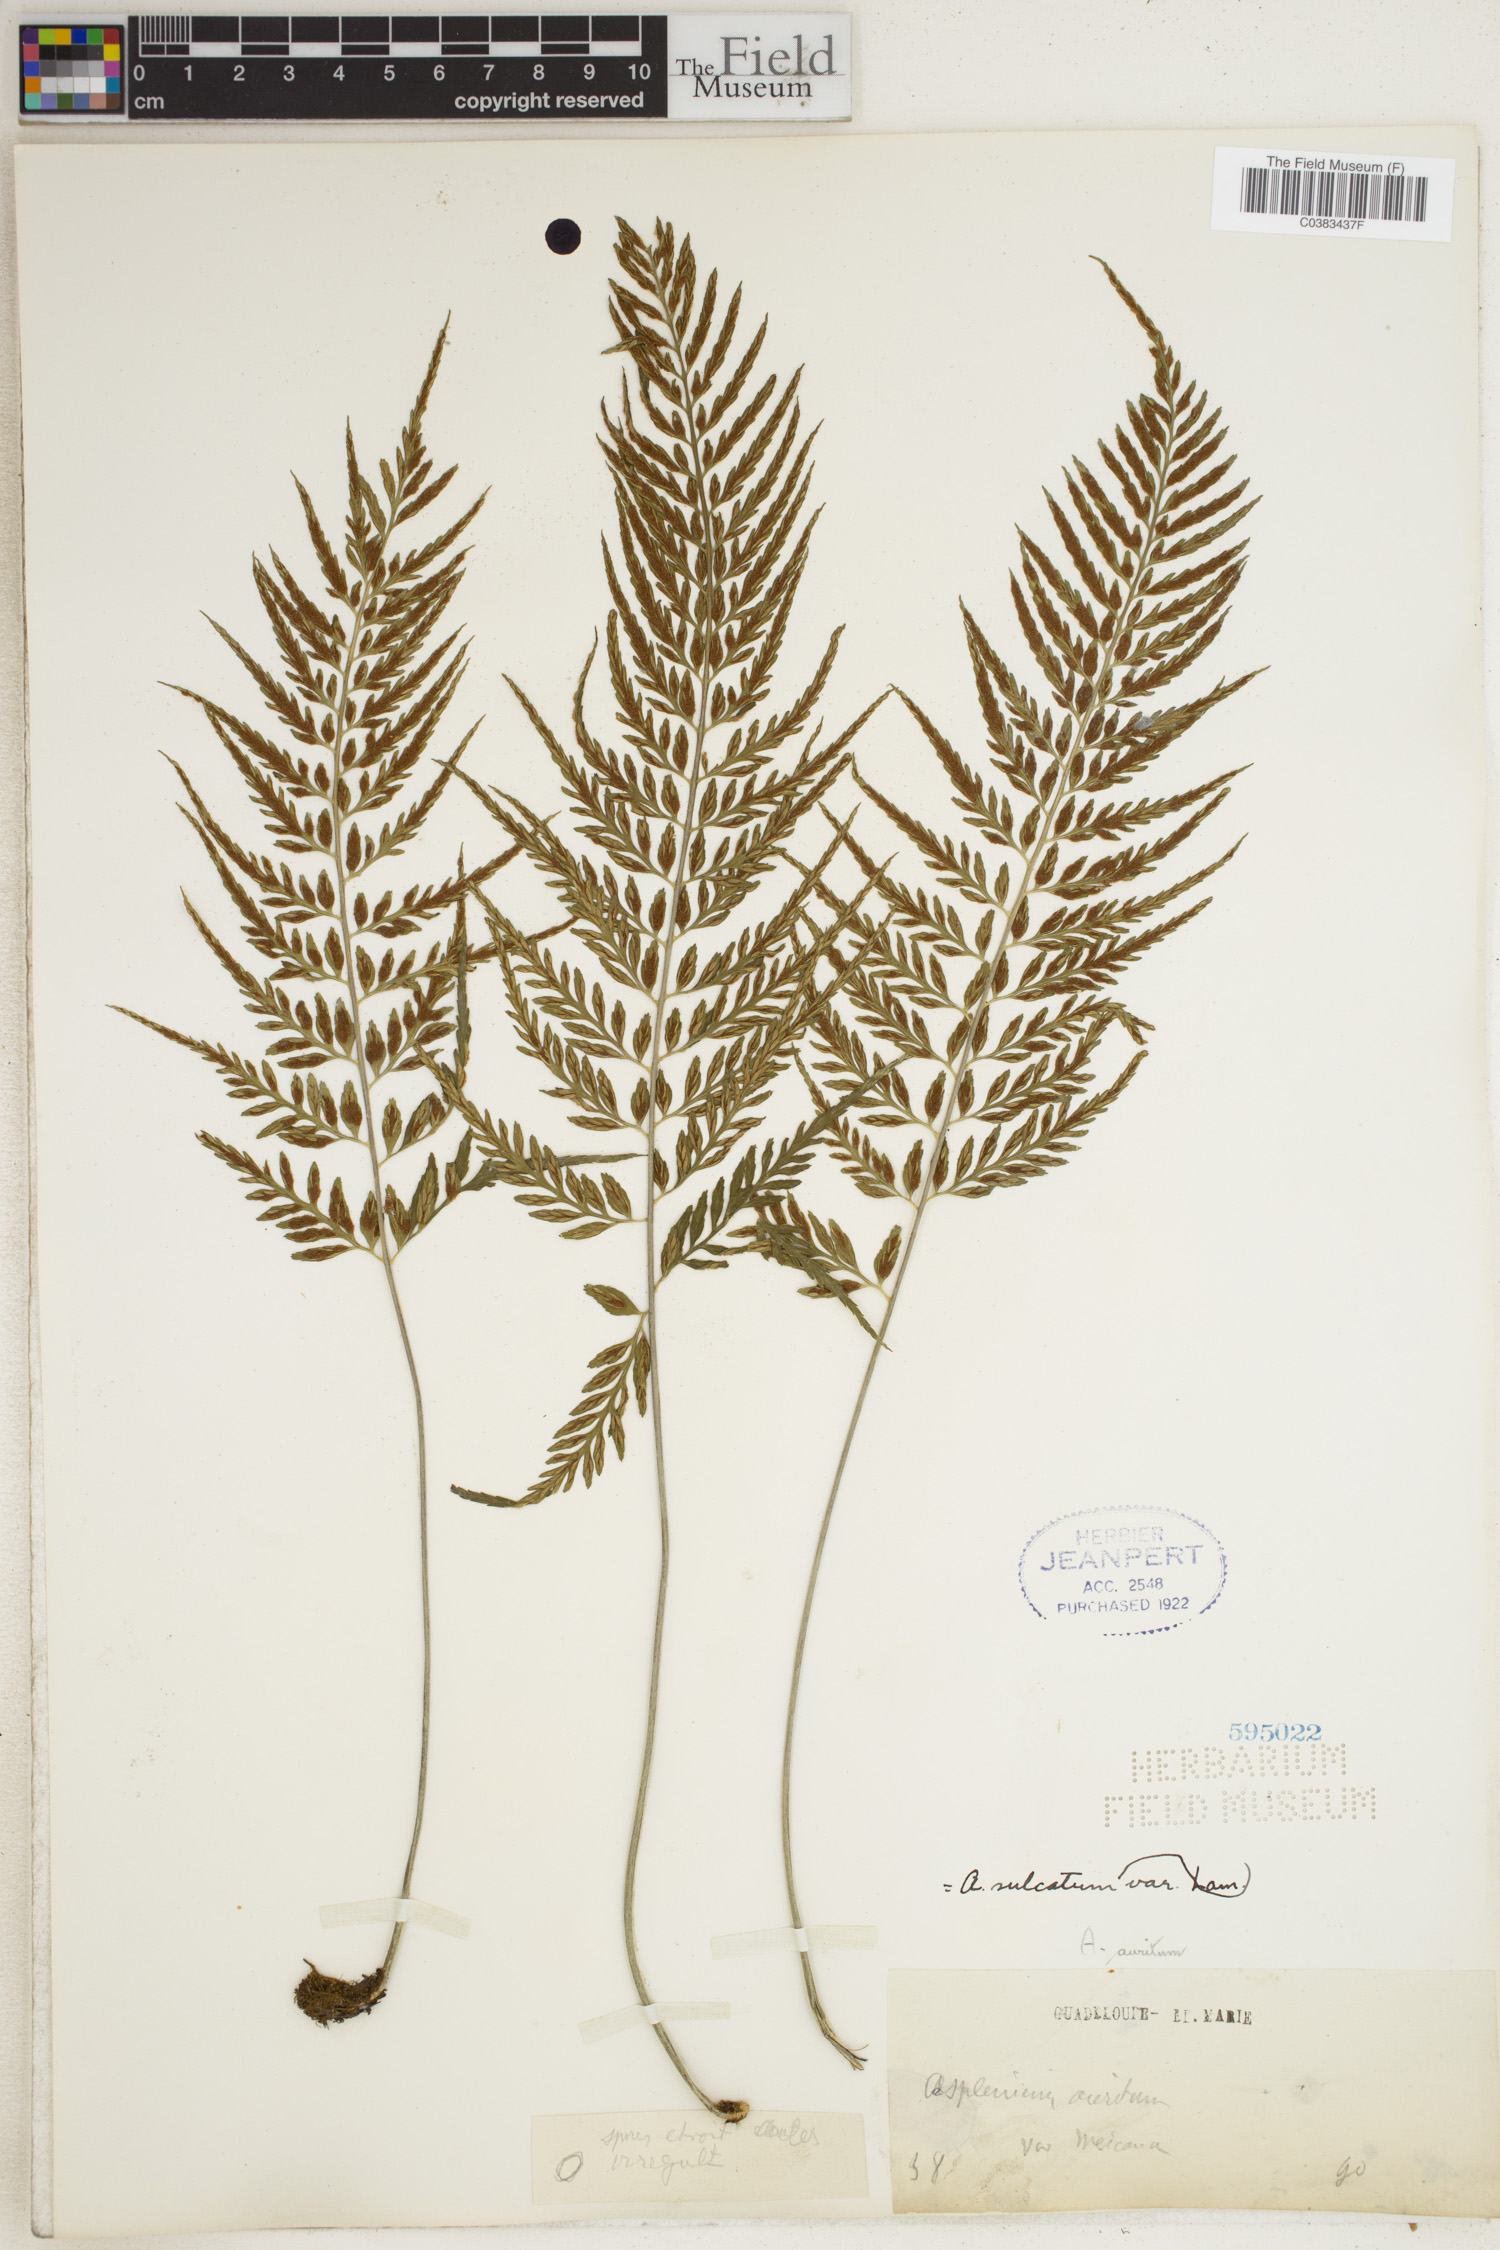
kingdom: Plantae
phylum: Tracheophyta
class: Polypodiopsida
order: Polypodiales
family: Aspleniaceae
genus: Asplenium
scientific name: Asplenium sulcatum
